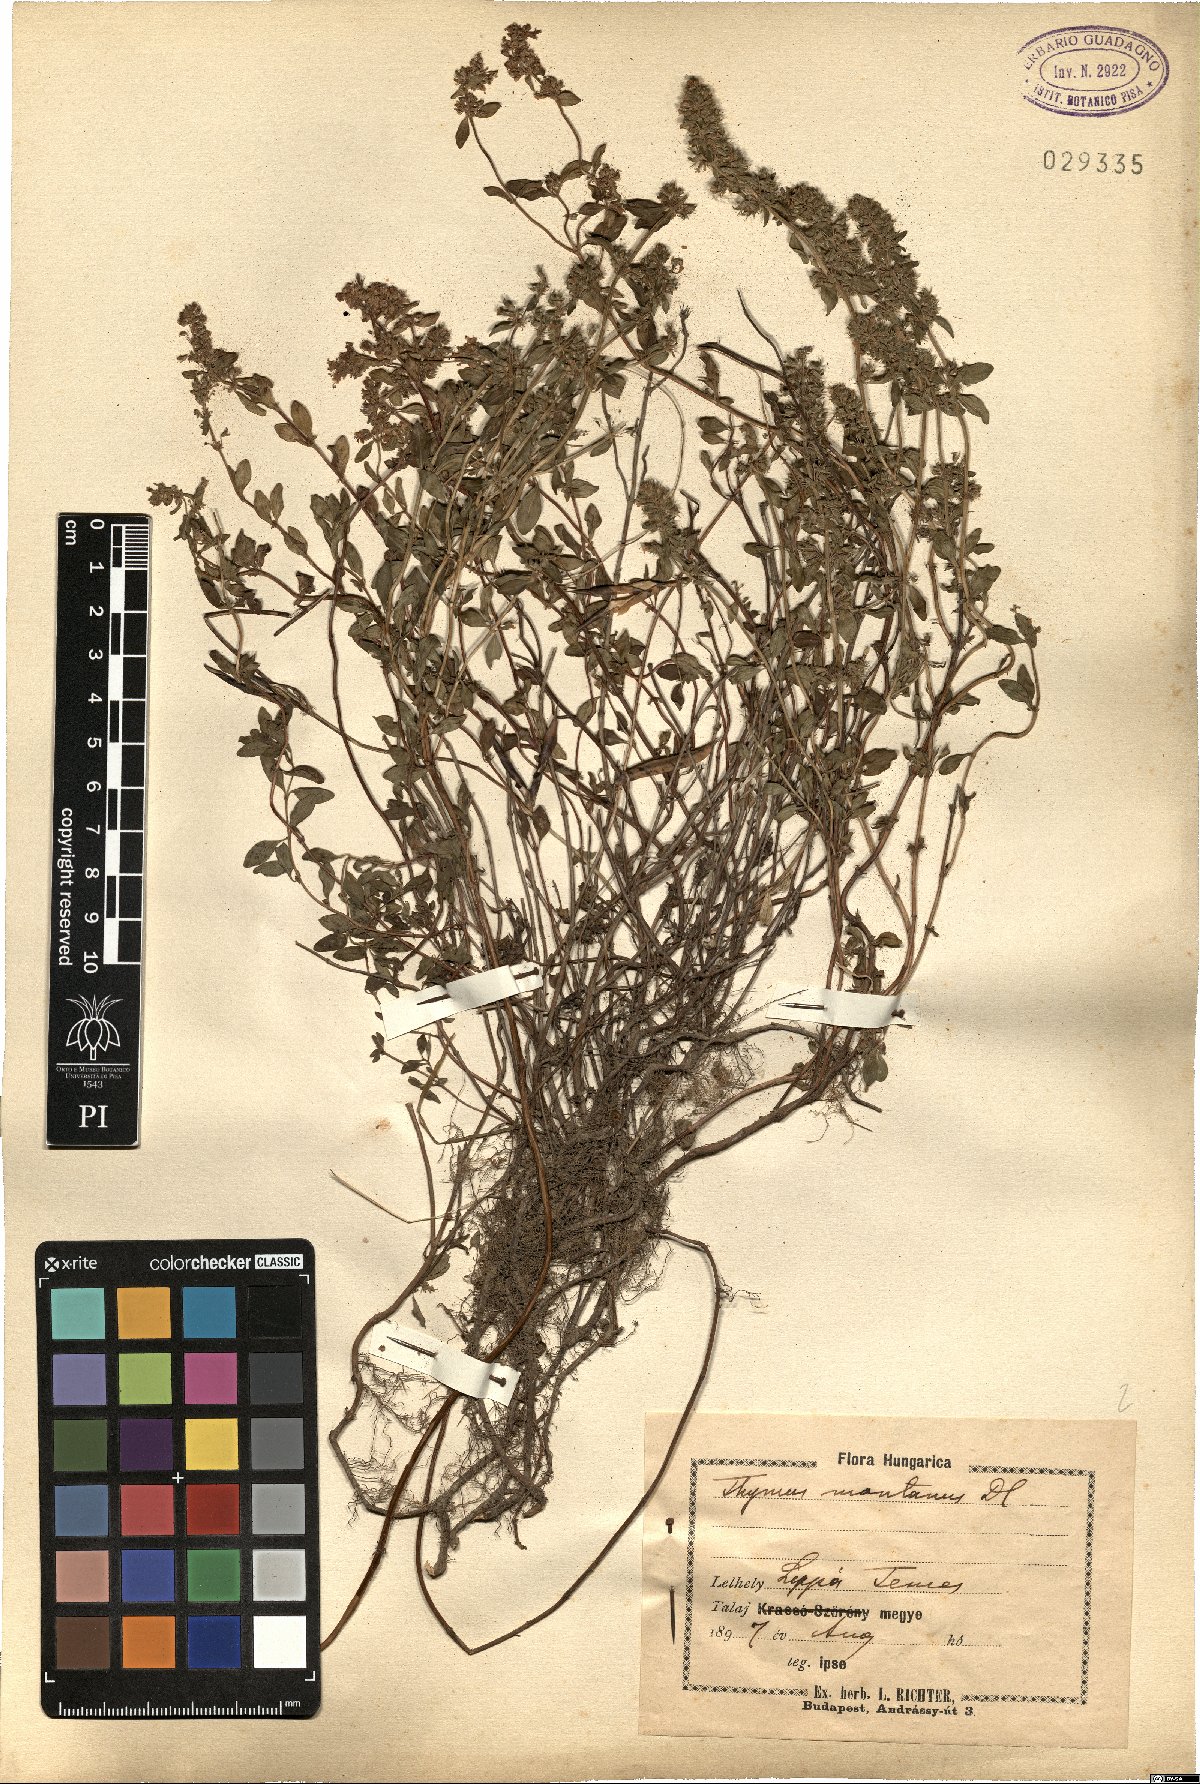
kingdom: Plantae
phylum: Tracheophyta
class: Magnoliopsida
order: Lamiales
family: Lamiaceae
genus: Thymus
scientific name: Thymus pulegioides
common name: Large thyme
